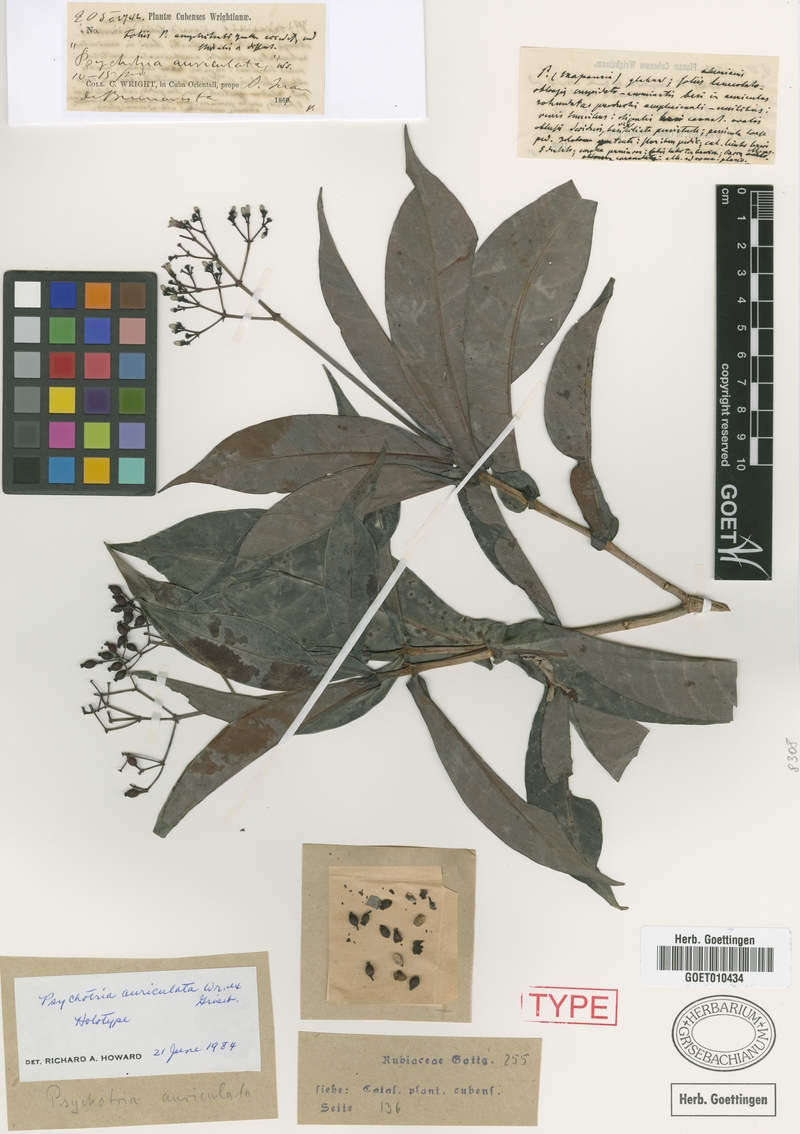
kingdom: Plantae
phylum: Tracheophyta
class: Magnoliopsida
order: Gentianales
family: Rubiaceae
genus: Psychotria
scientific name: Psychotria auriculata
